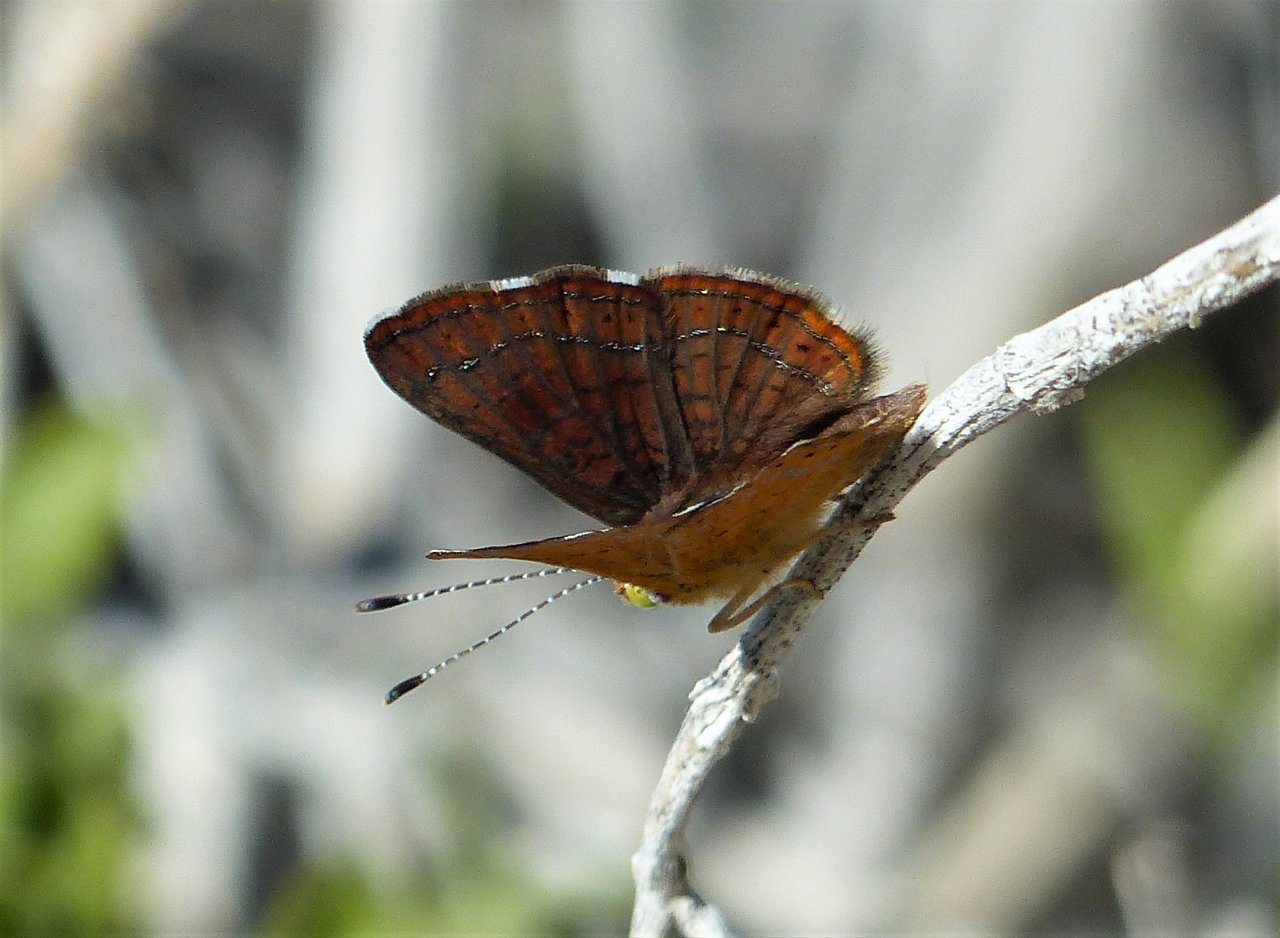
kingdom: Animalia
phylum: Arthropoda
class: Insecta
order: Lepidoptera
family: Lycaenidae
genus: Emesis
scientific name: Emesis wrighti
